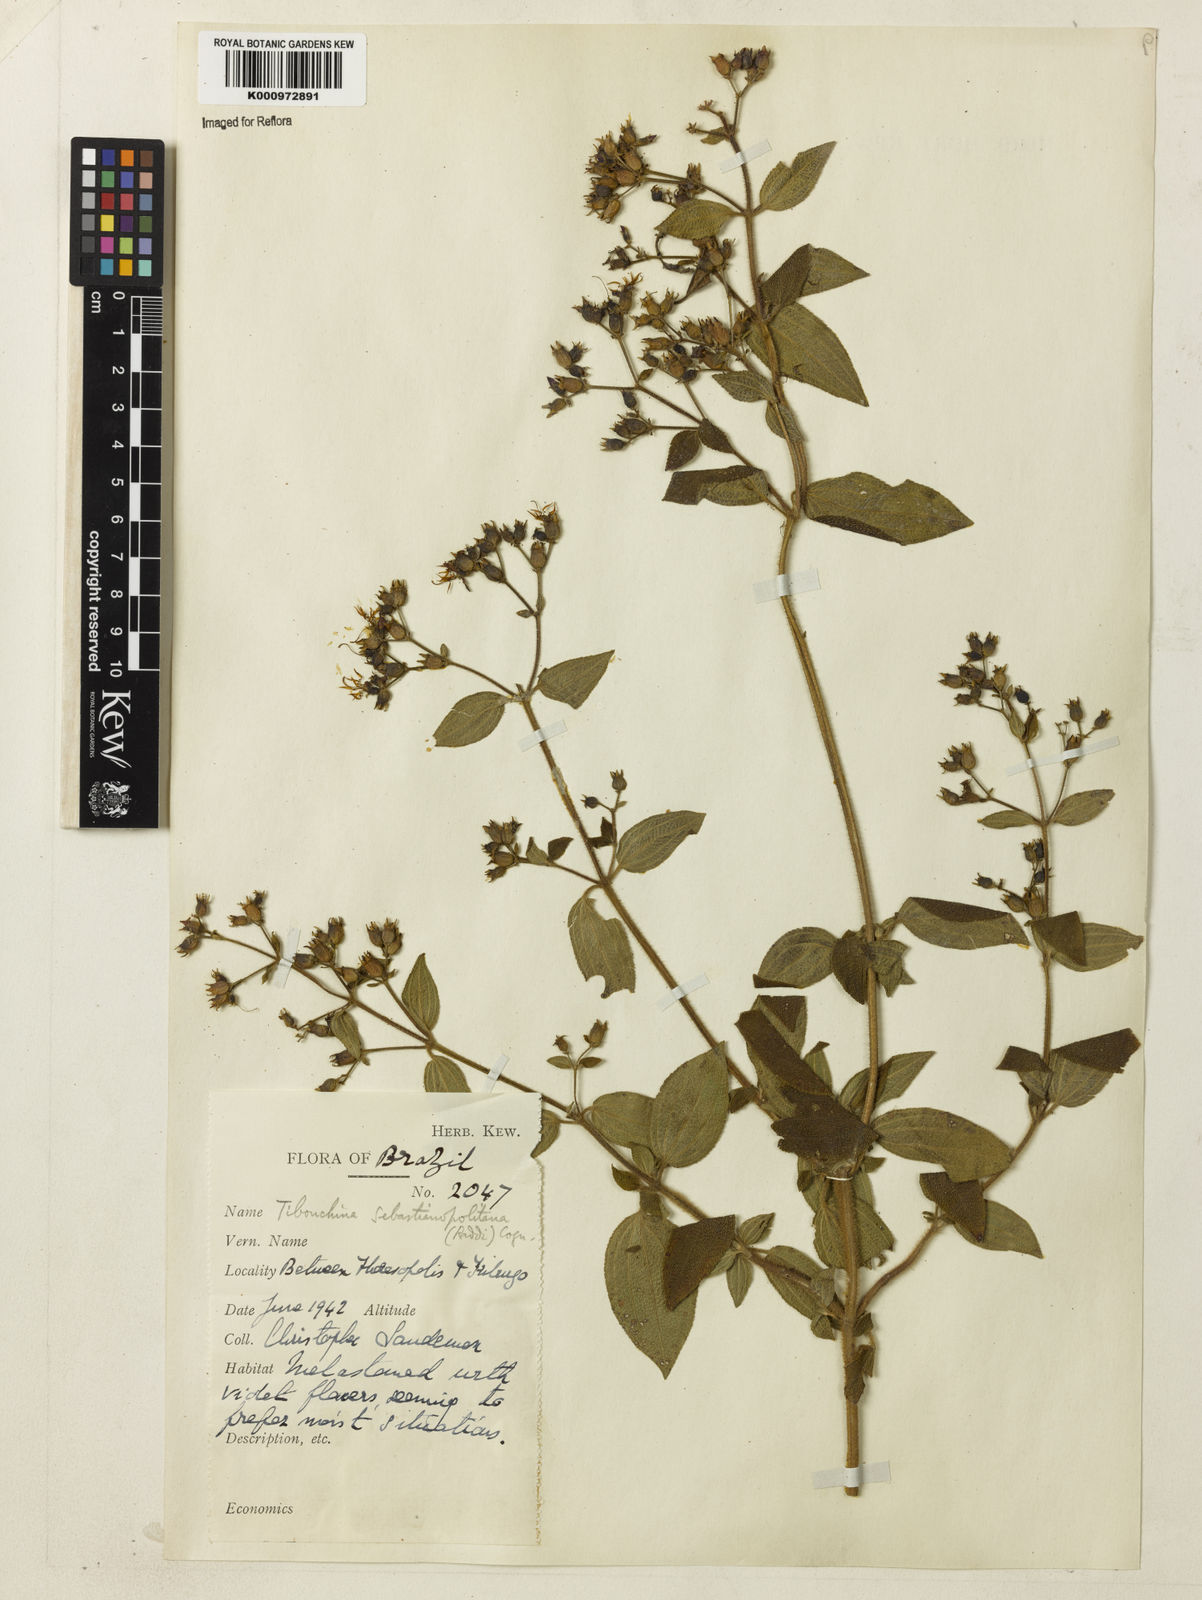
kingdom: Plantae
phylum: Tracheophyta
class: Magnoliopsida
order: Myrtales
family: Melastomataceae
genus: Chaetogastra
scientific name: Chaetogastra sebastianopolitana
